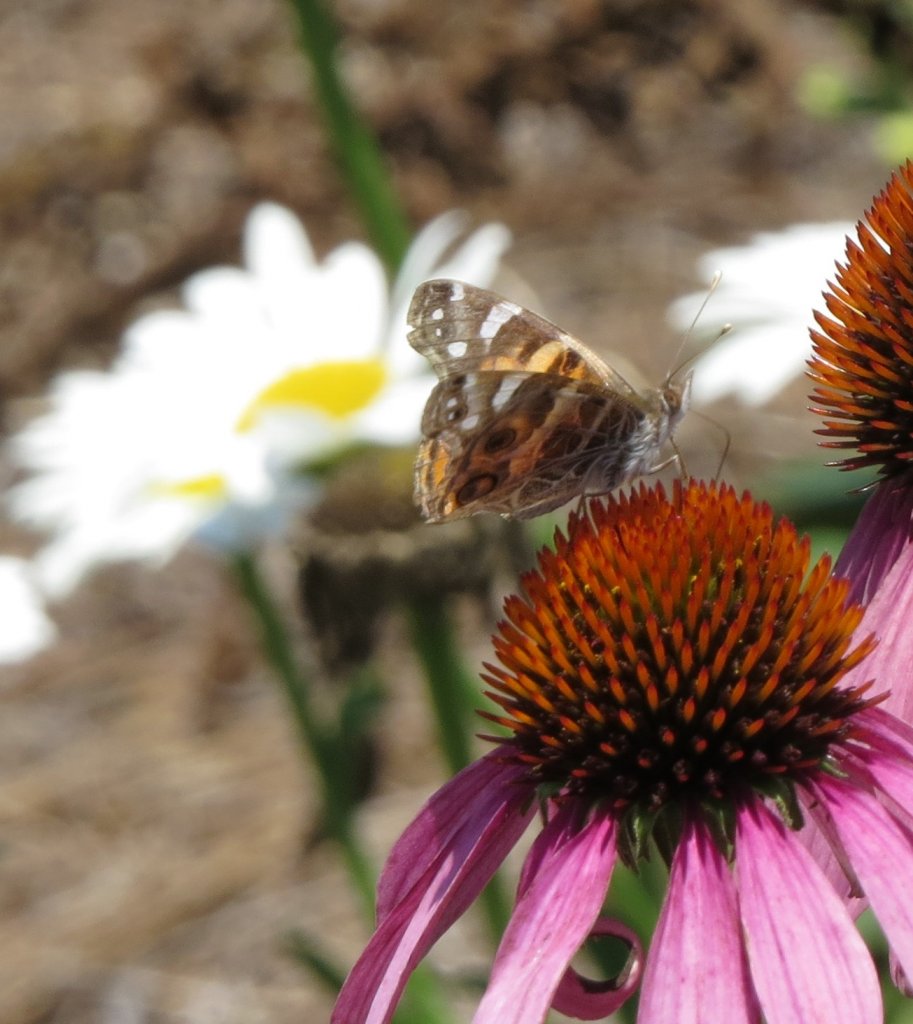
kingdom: Animalia
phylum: Arthropoda
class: Insecta
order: Lepidoptera
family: Nymphalidae
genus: Vanessa
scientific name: Vanessa virginiensis
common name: American Lady
